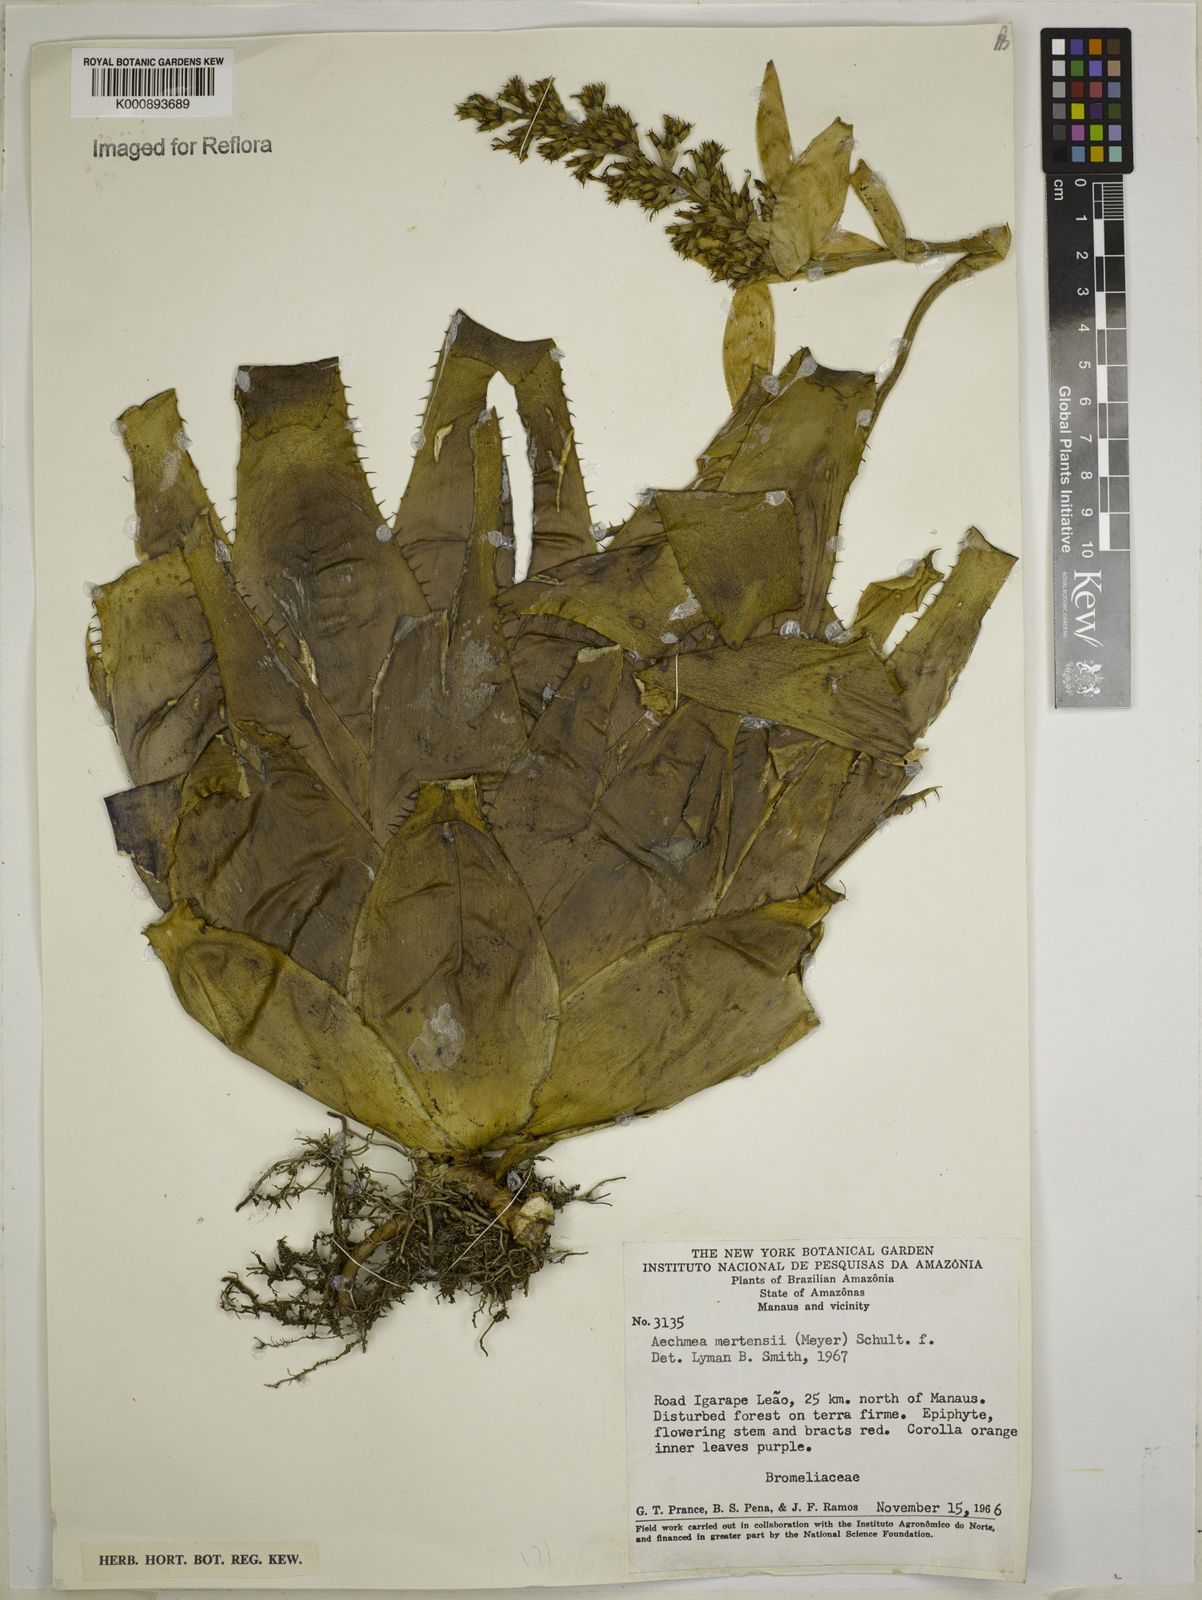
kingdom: Plantae
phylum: Tracheophyta
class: Liliopsida
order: Poales
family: Bromeliaceae
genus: Aechmea
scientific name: Aechmea mertensii
